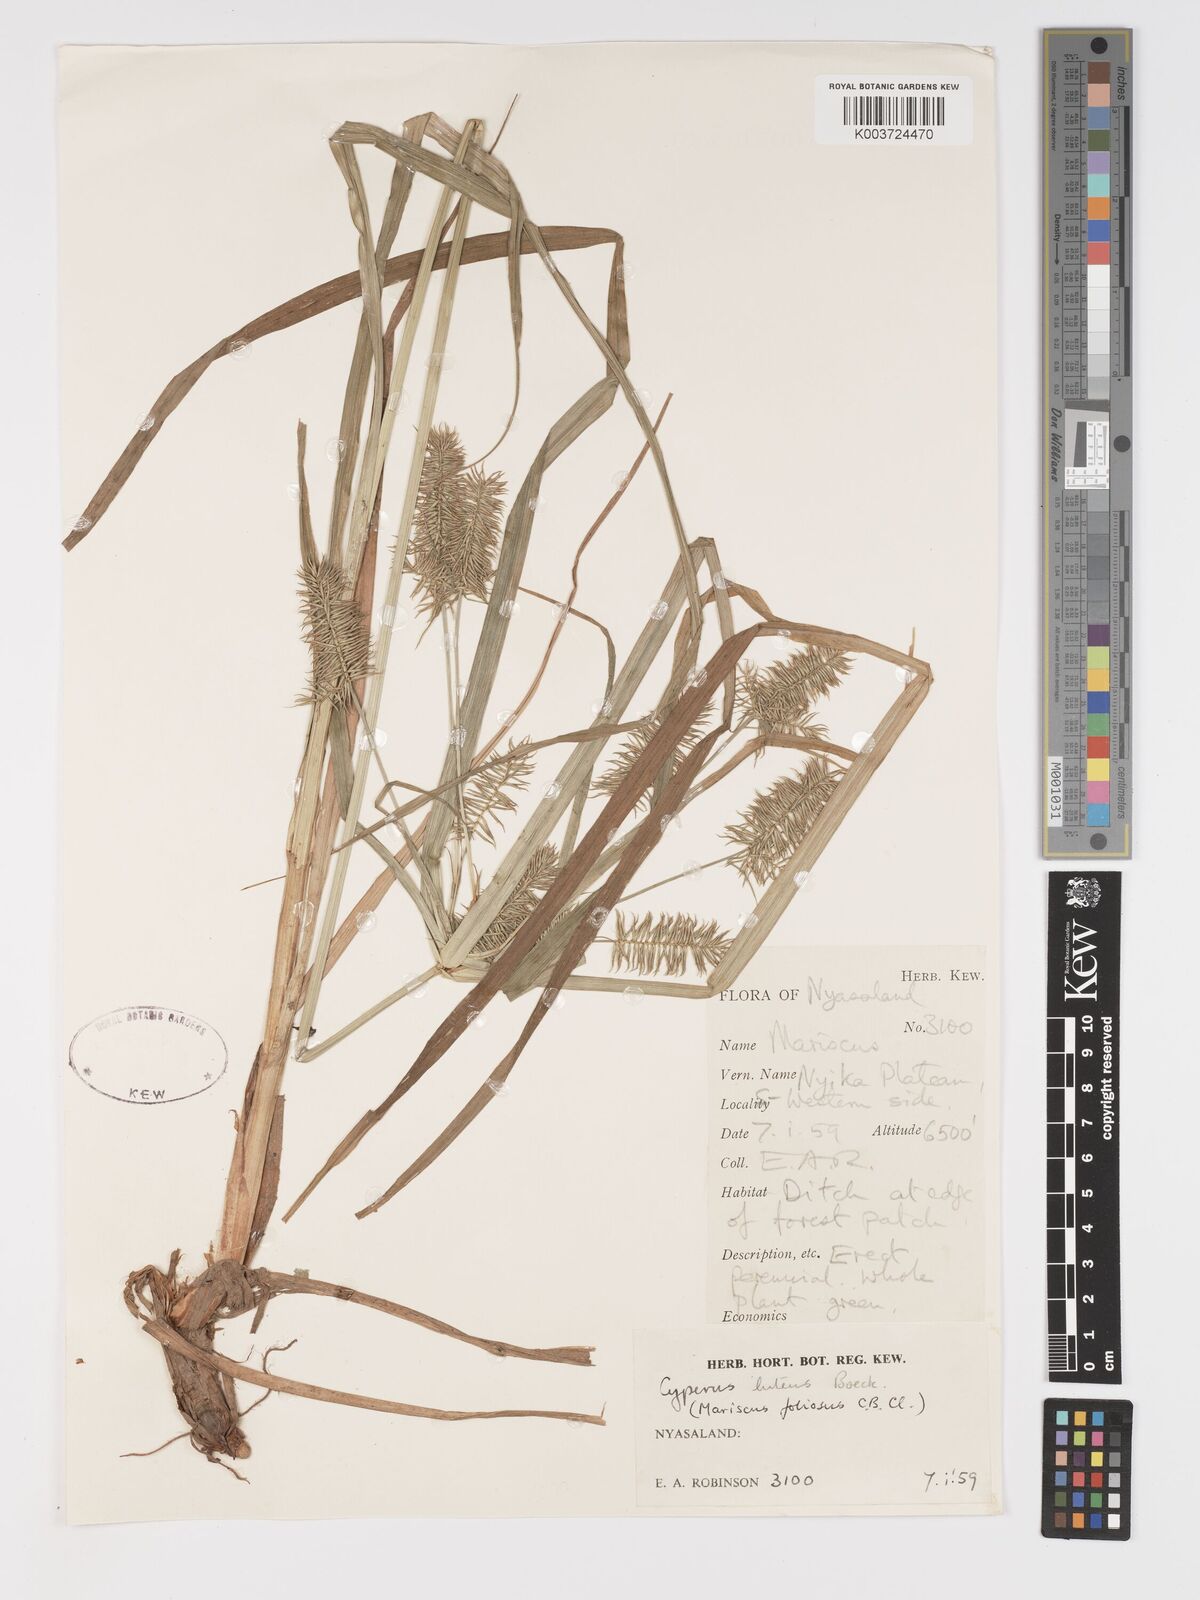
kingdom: Plantae
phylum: Tracheophyta
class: Liliopsida
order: Poales
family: Cyperaceae
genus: Cyperus
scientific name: Cyperus luteus
